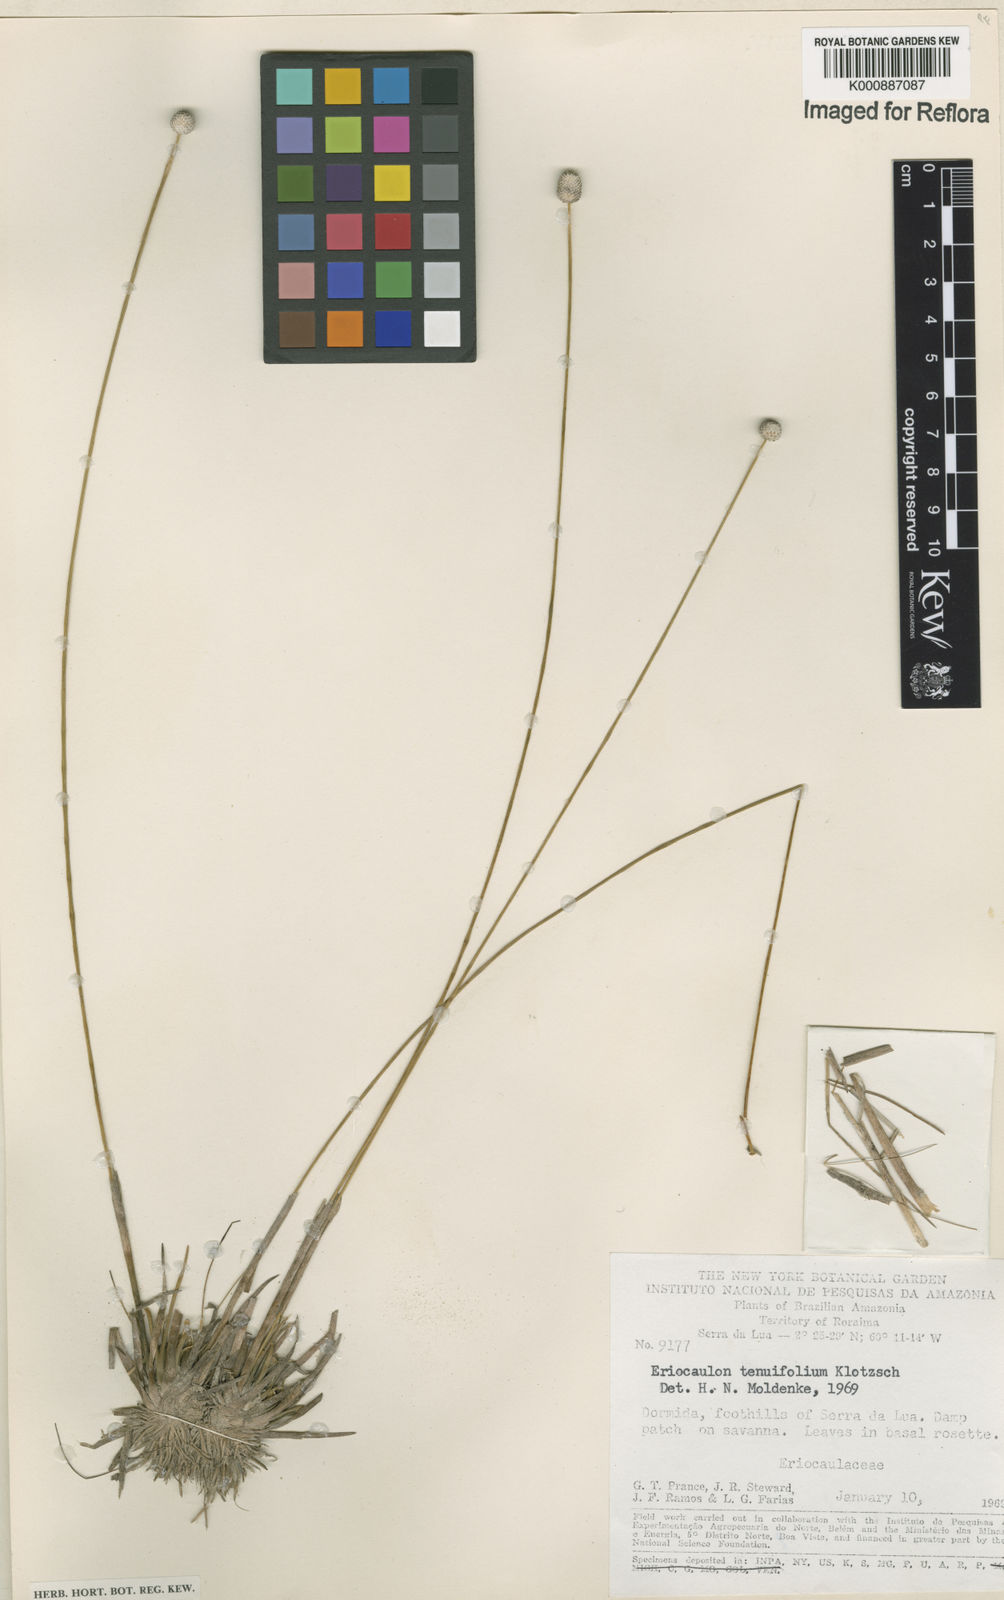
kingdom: Plantae
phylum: Tracheophyta
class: Liliopsida
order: Poales
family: Eriocaulaceae
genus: Eriocaulon
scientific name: Eriocaulon
